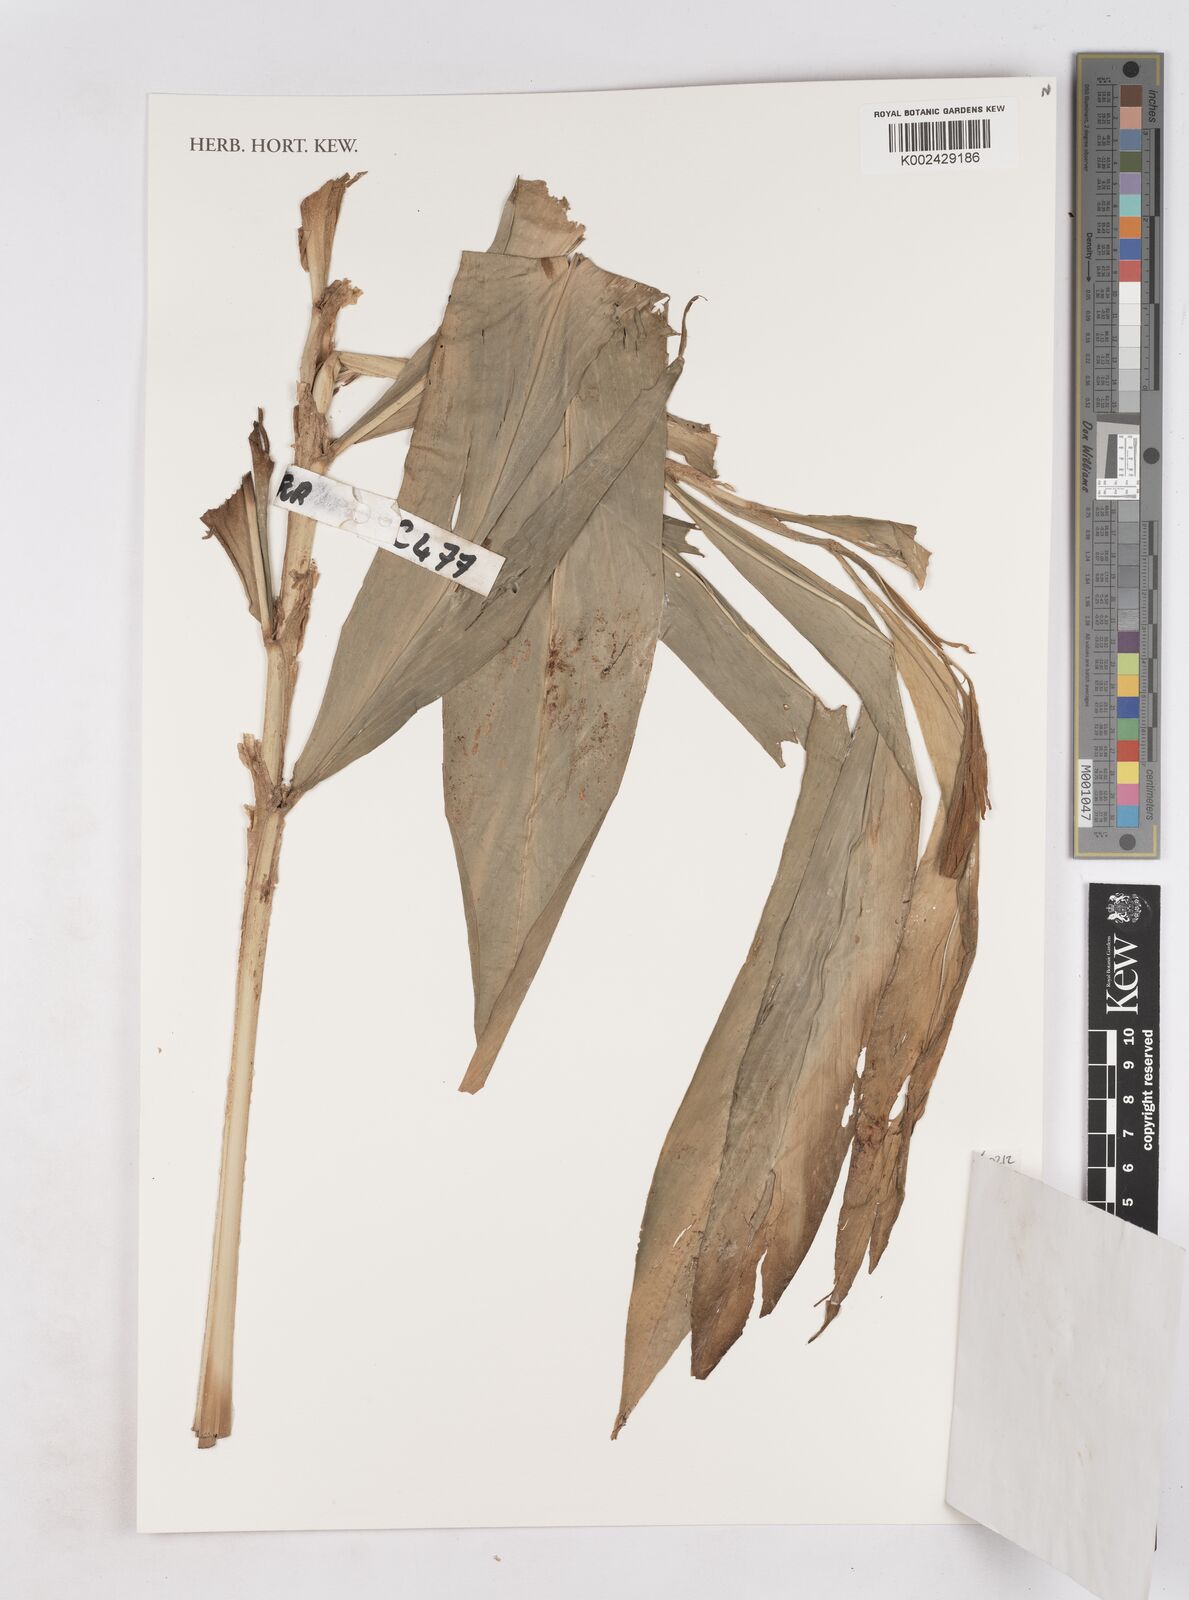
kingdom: Plantae
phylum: Tracheophyta
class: Liliopsida
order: Zingiberales
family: Zingiberaceae
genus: Zingiber
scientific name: Zingiber
